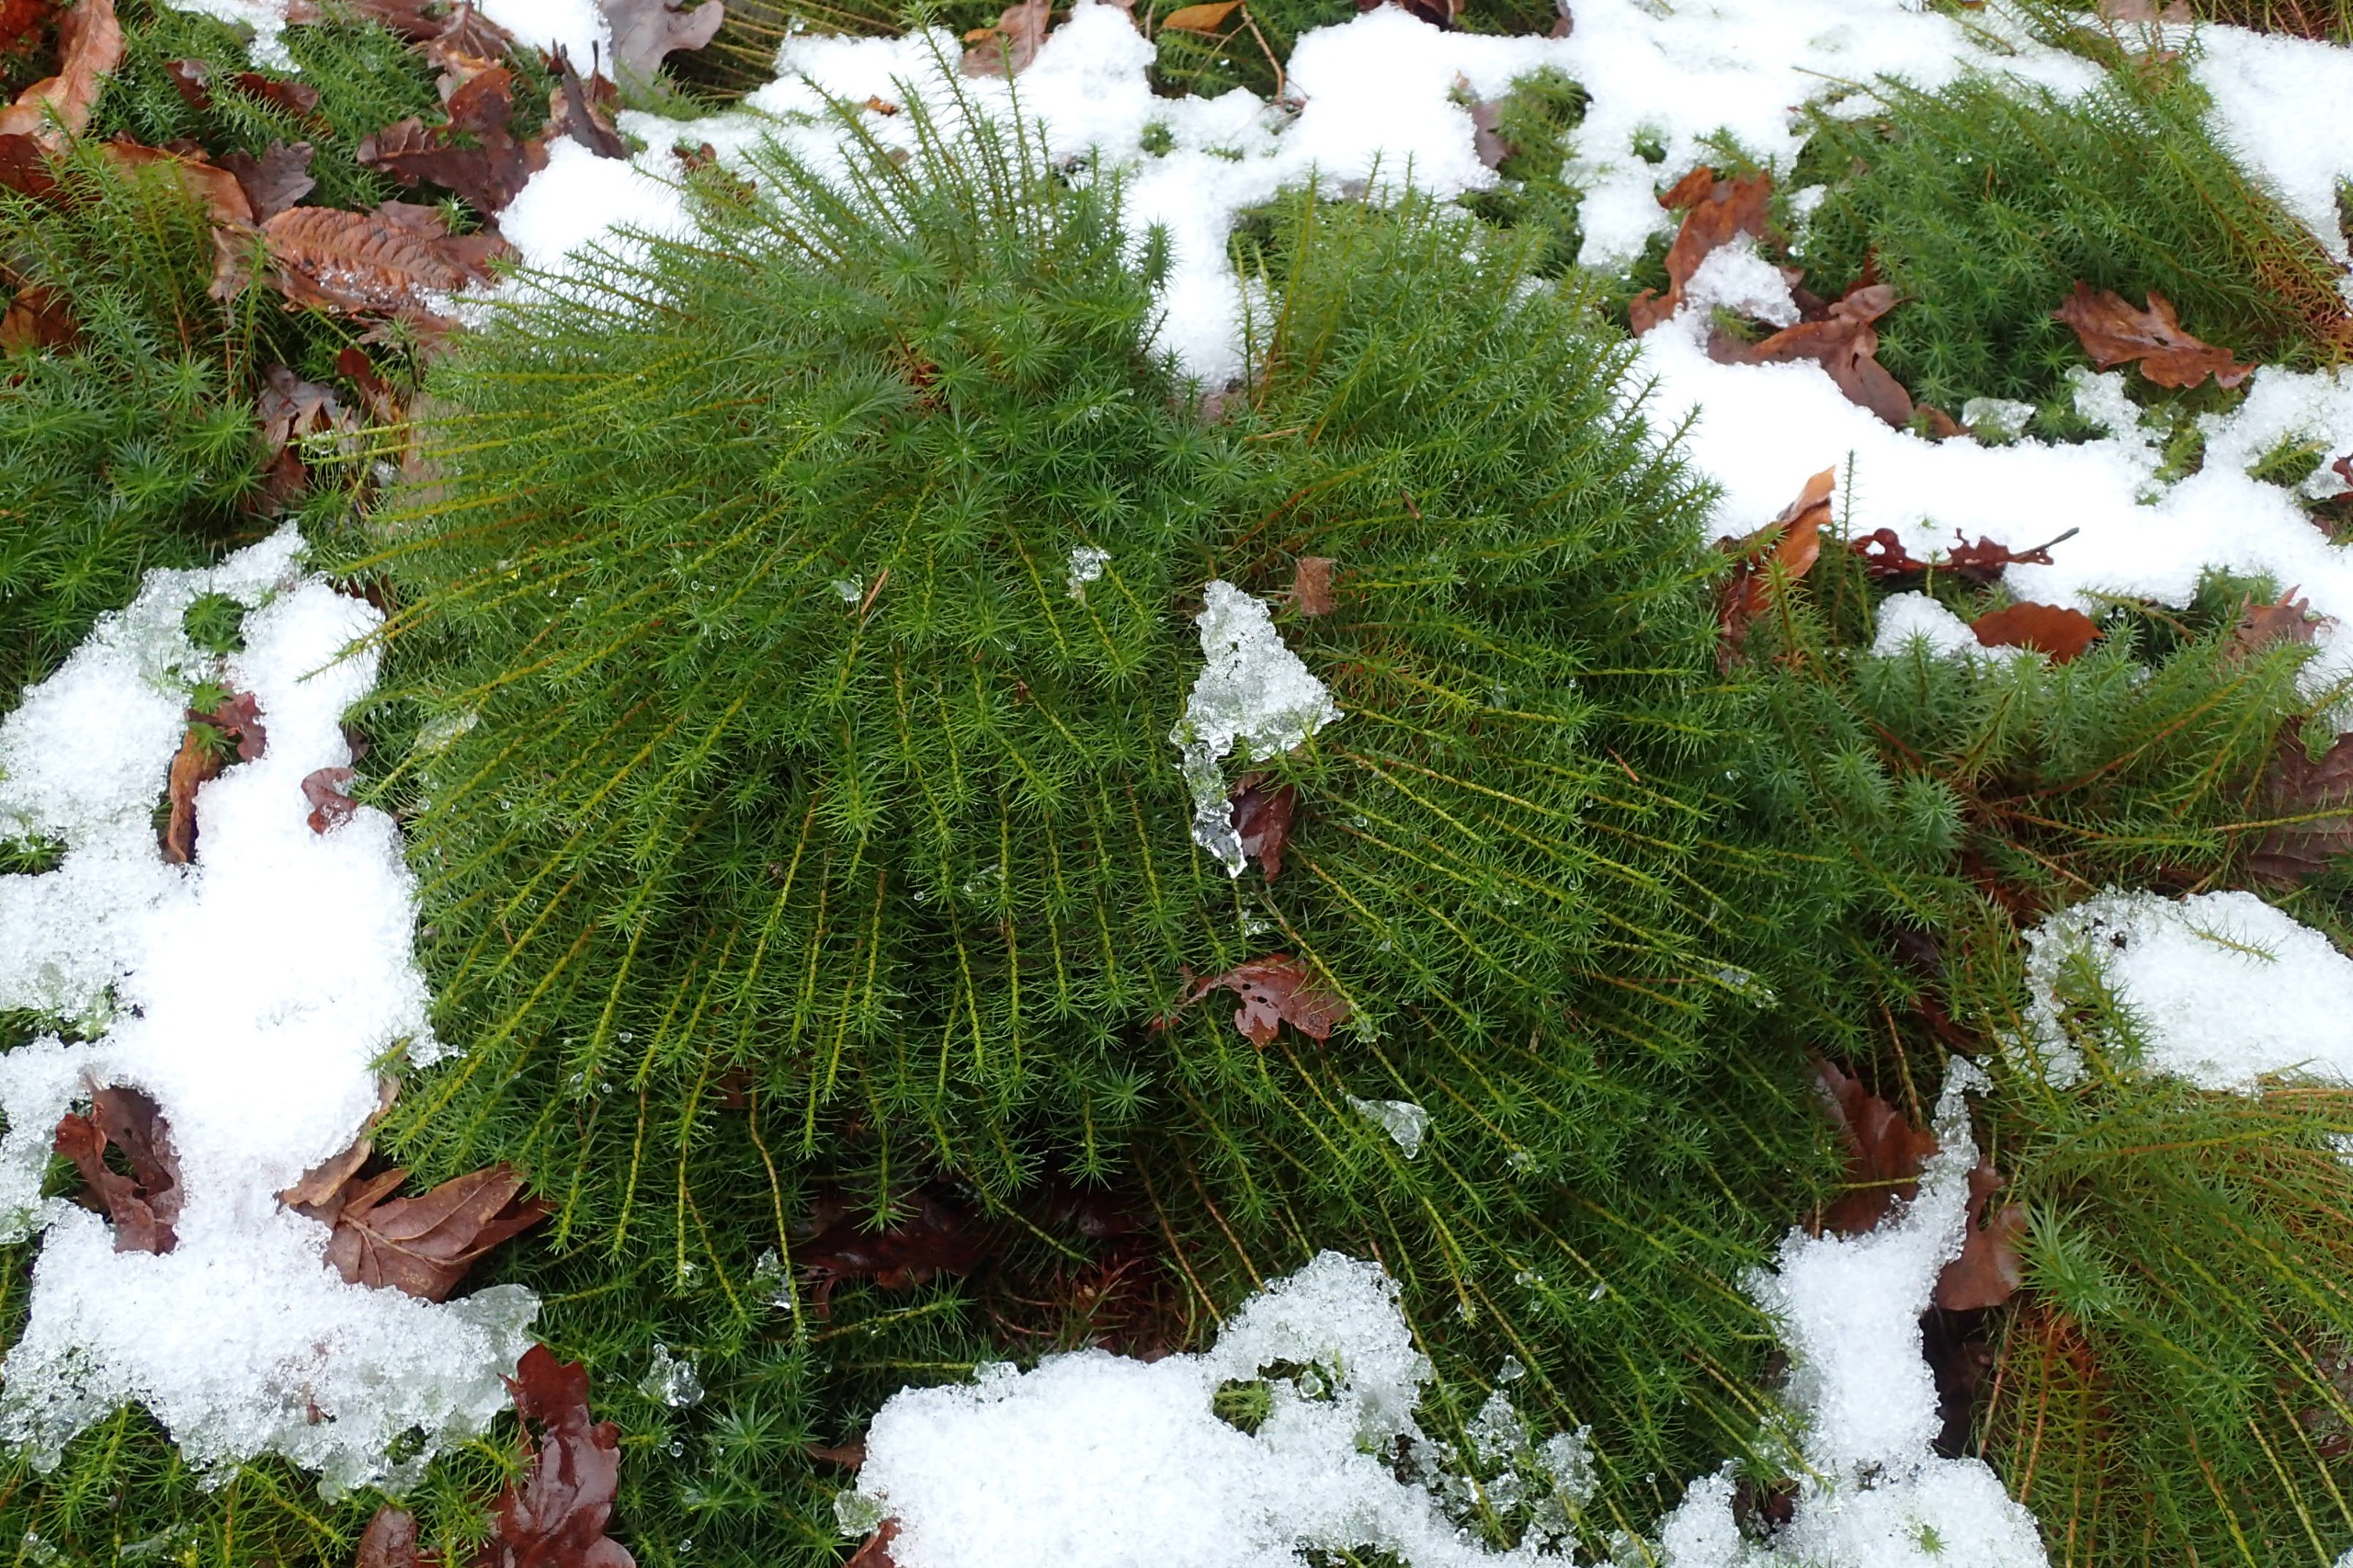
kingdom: Plantae
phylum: Bryophyta
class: Polytrichopsida
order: Polytrichales
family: Polytrichaceae
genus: Polytrichum
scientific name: Polytrichum commune
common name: Almindelig jomfruhår
